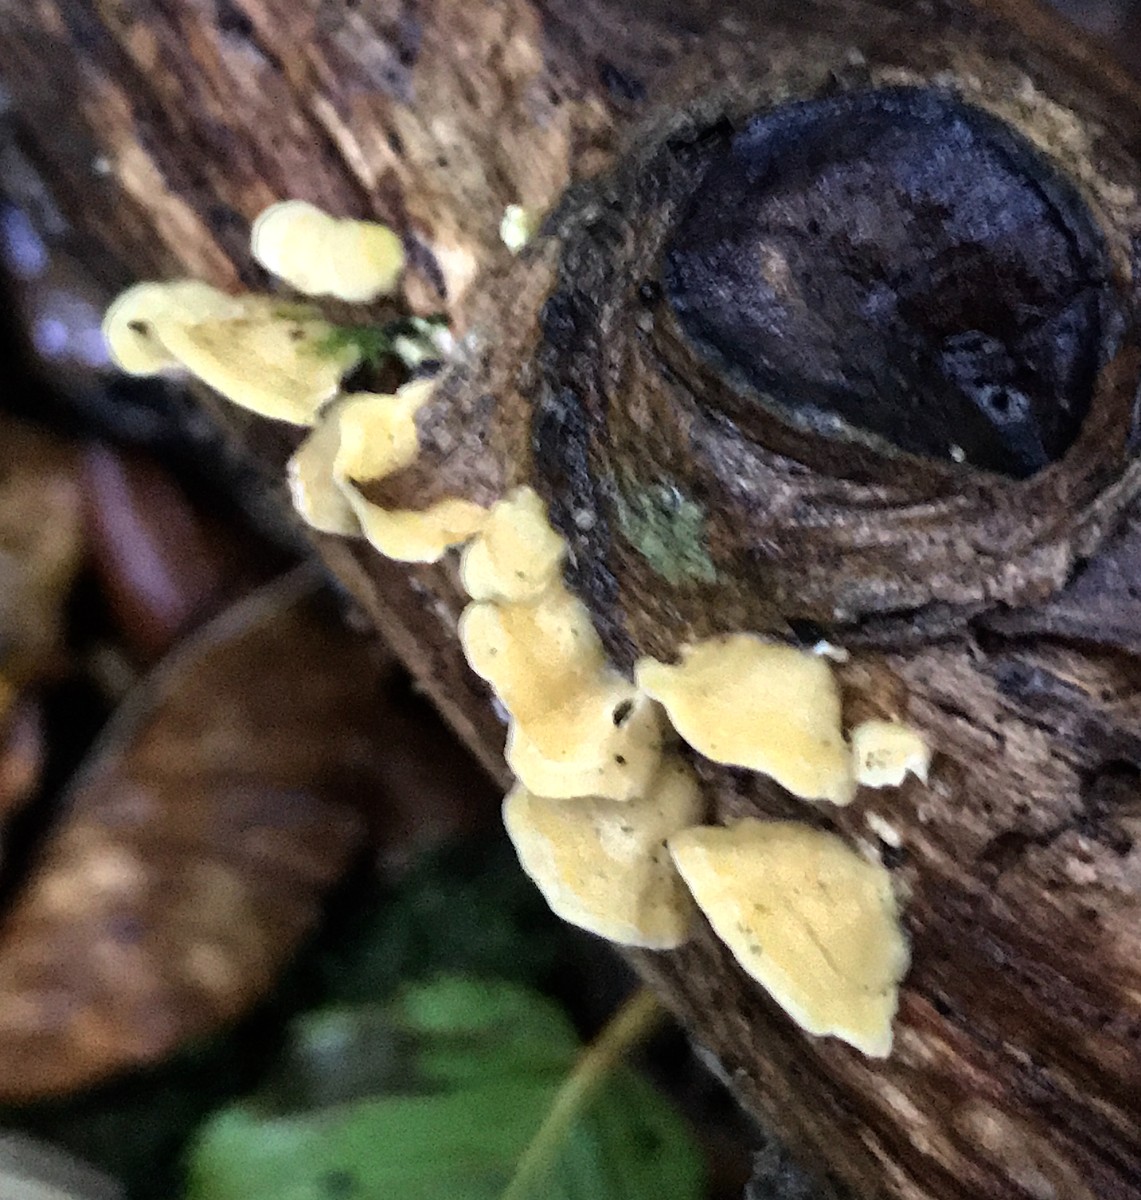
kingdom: Fungi
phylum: Basidiomycota
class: Agaricomycetes
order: Polyporales
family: Steccherinaceae
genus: Steccherinum
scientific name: Steccherinum ochraceum
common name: almindelig skønpig
